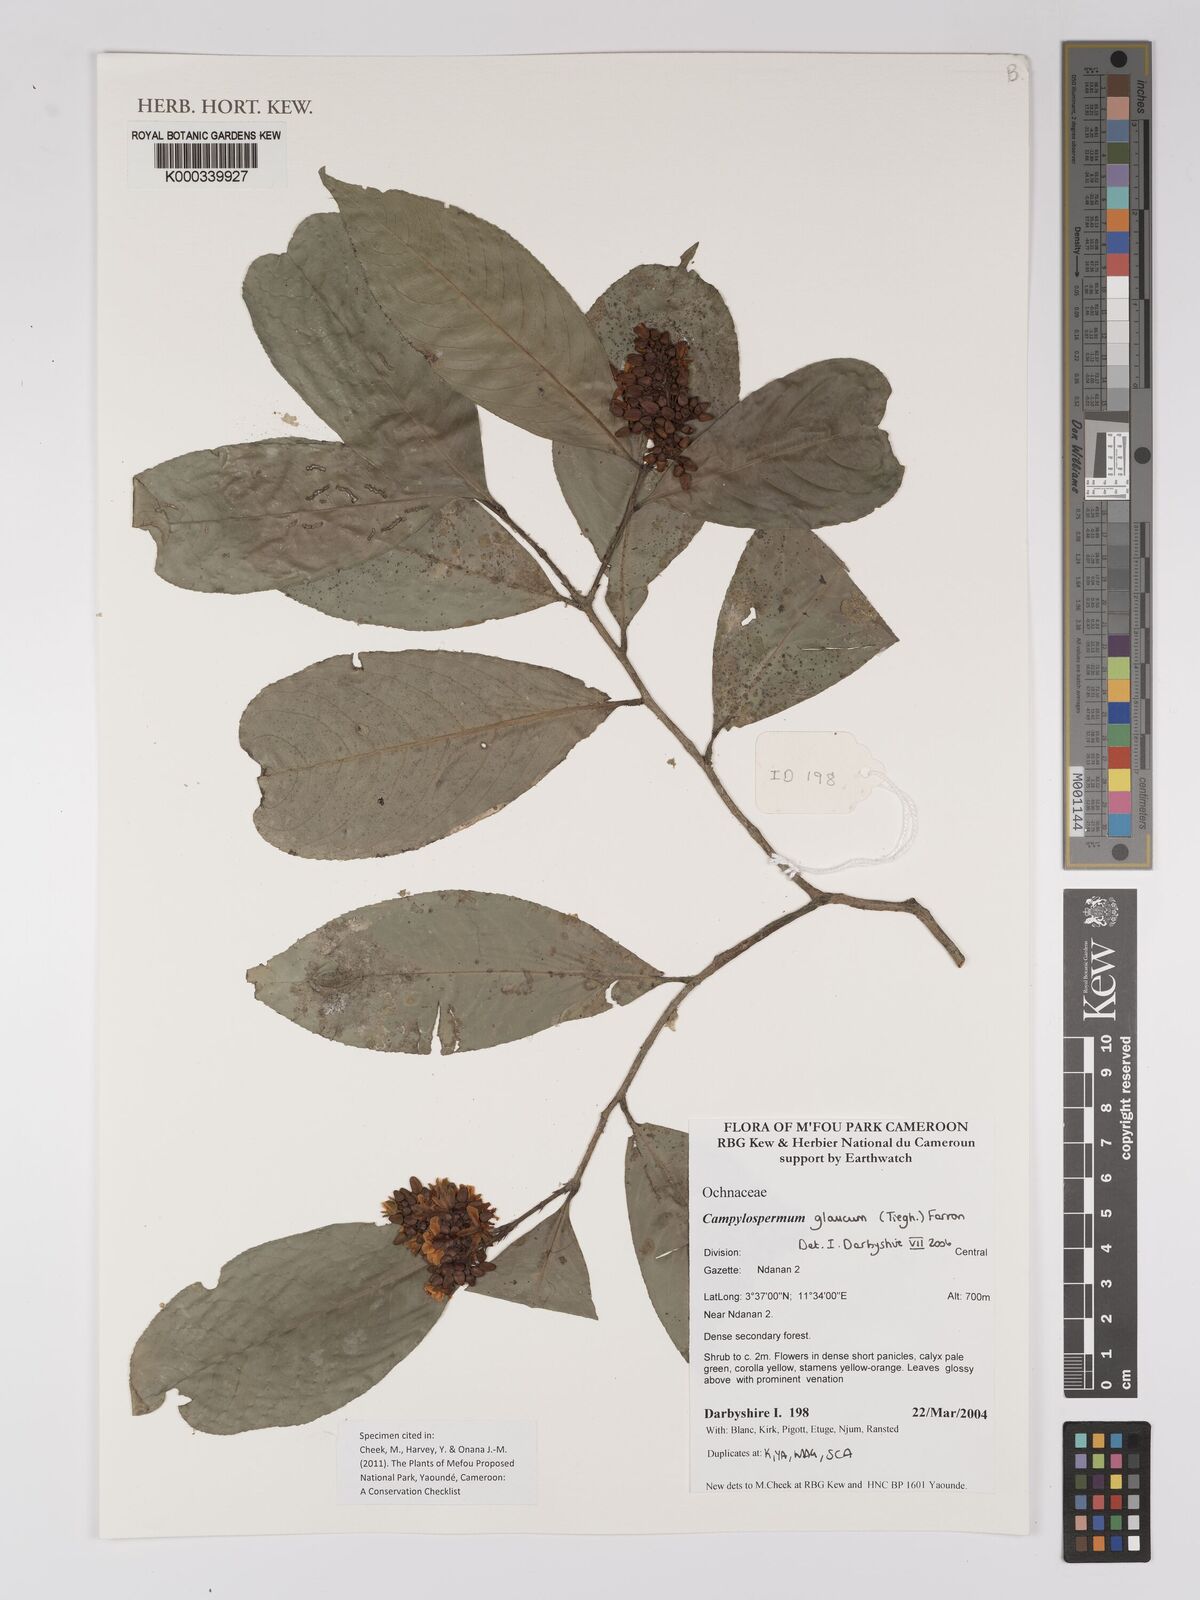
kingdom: Plantae
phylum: Tracheophyta
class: Magnoliopsida
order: Malpighiales
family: Ochnaceae
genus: Campylospermum
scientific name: Campylospermum glaucum
